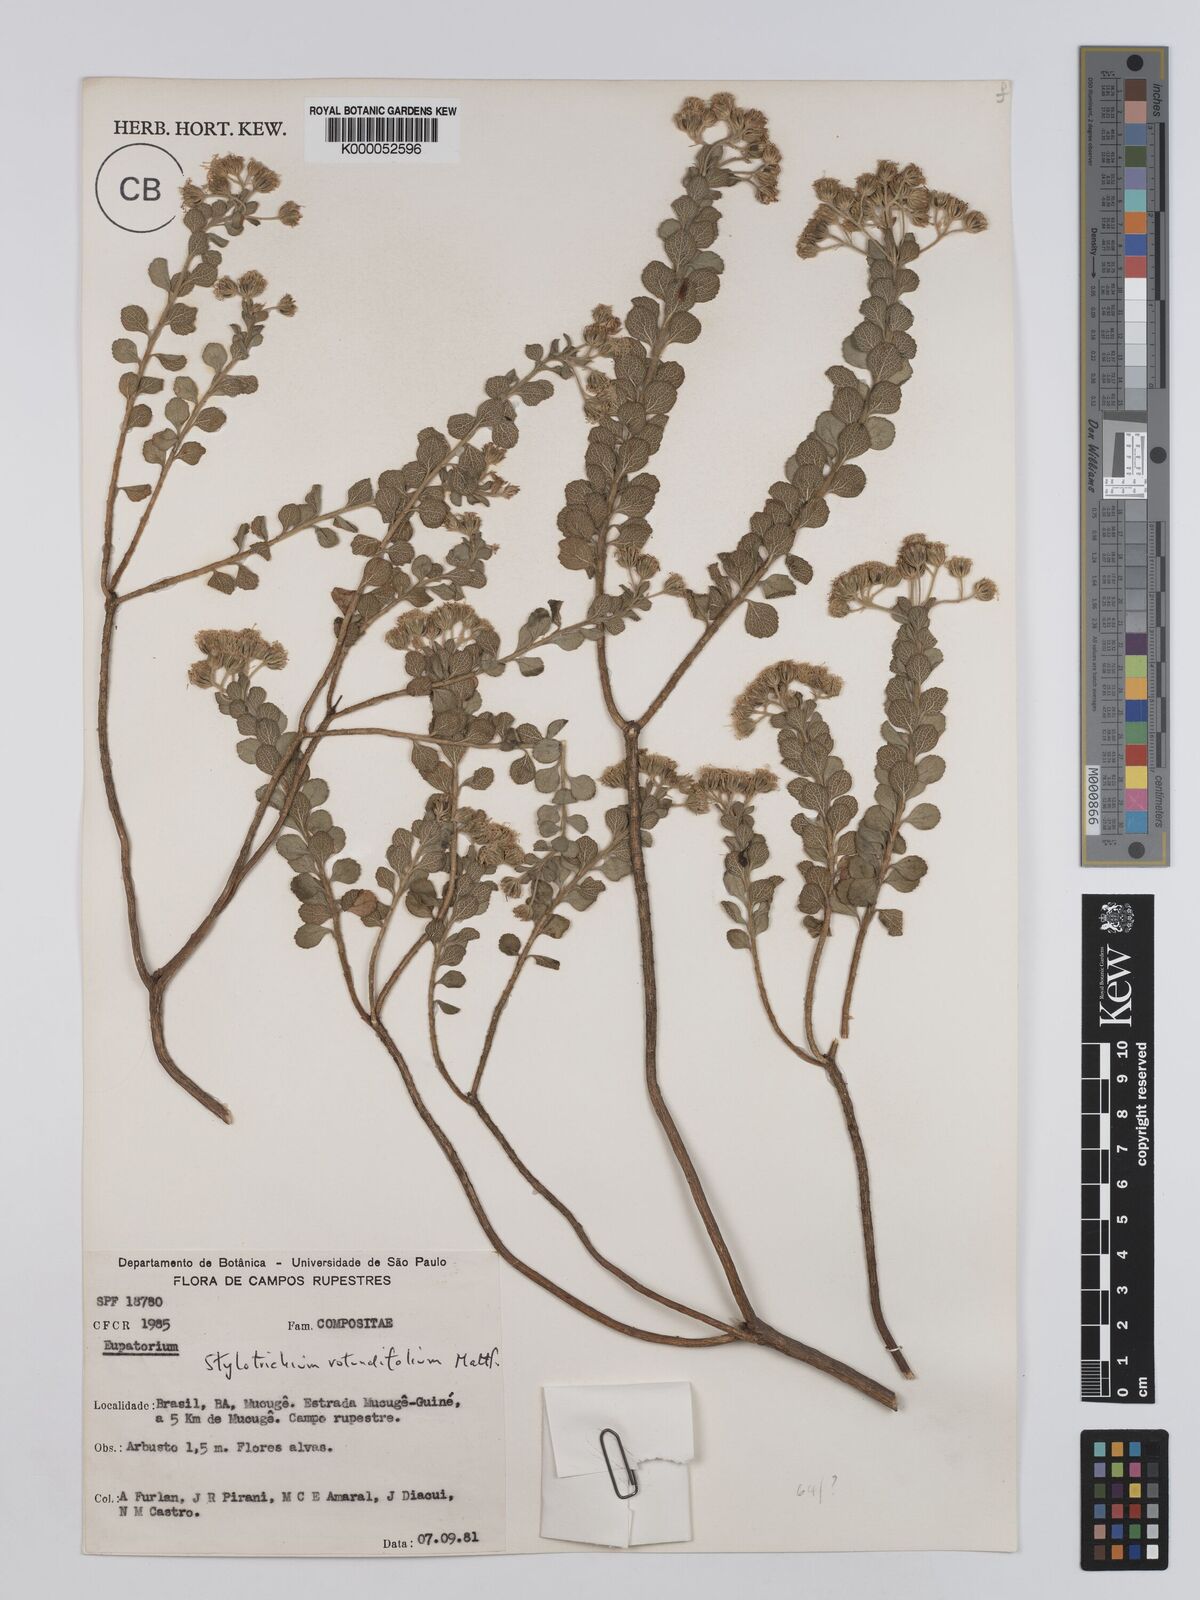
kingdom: Plantae
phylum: Tracheophyta
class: Magnoliopsida
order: Asterales
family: Asteraceae
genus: Stylotrichium
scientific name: Stylotrichium rotundifolium
